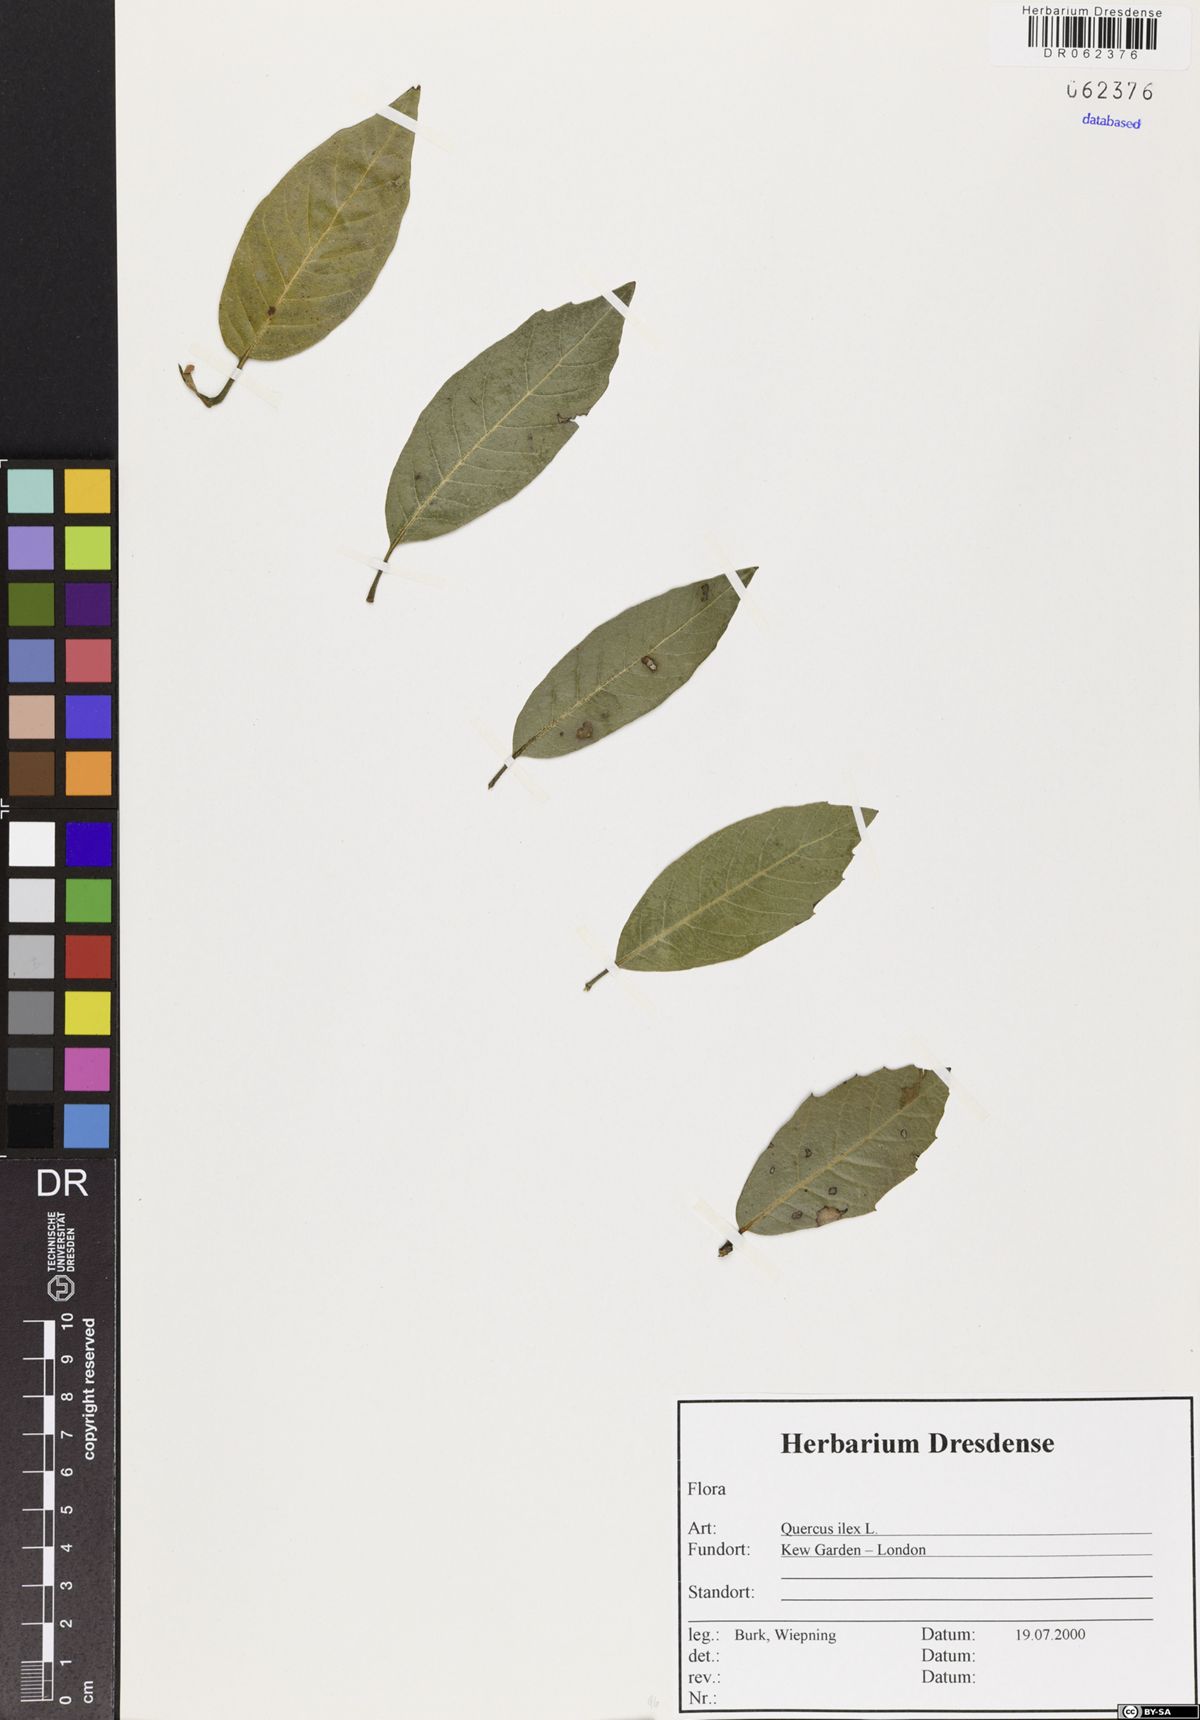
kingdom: Plantae
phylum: Tracheophyta
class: Magnoliopsida
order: Fagales
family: Fagaceae
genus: Quercus
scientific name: Quercus ilex
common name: Evergreen oak
